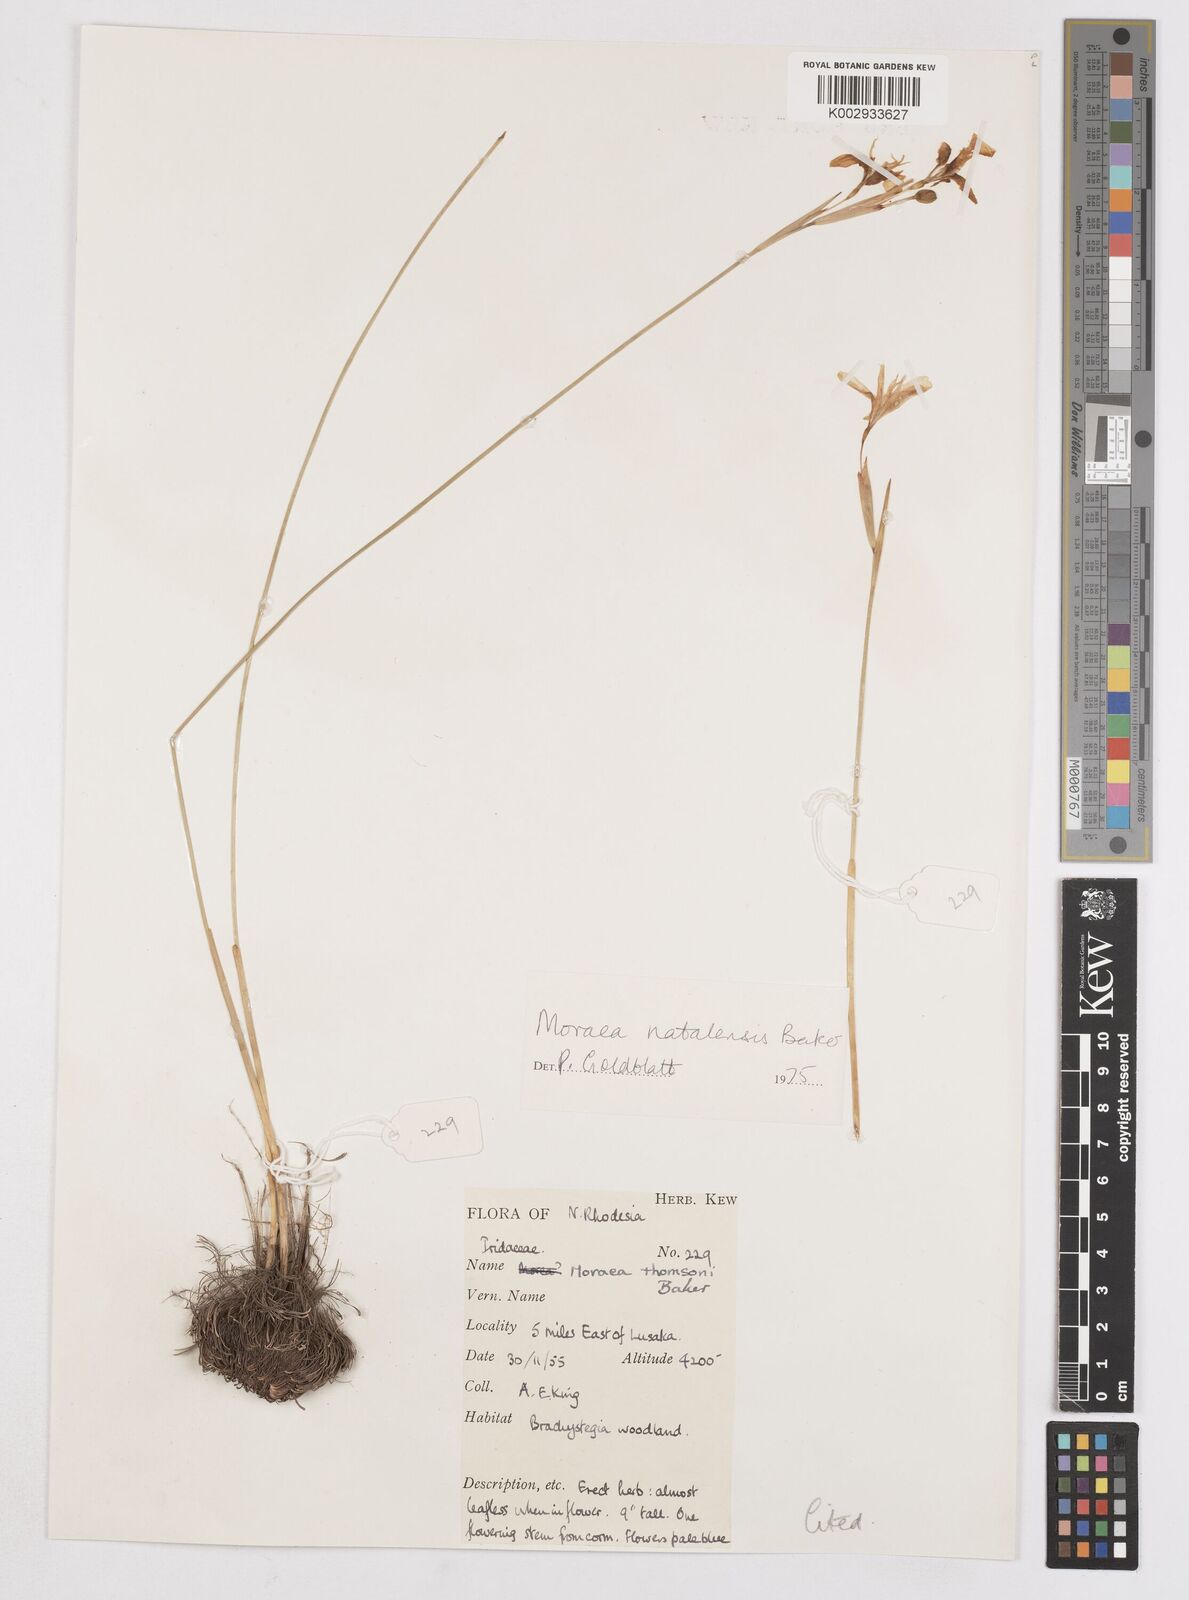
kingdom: Plantae
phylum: Tracheophyta
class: Liliopsida
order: Asparagales
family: Iridaceae
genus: Moraea
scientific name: Moraea natalensis
